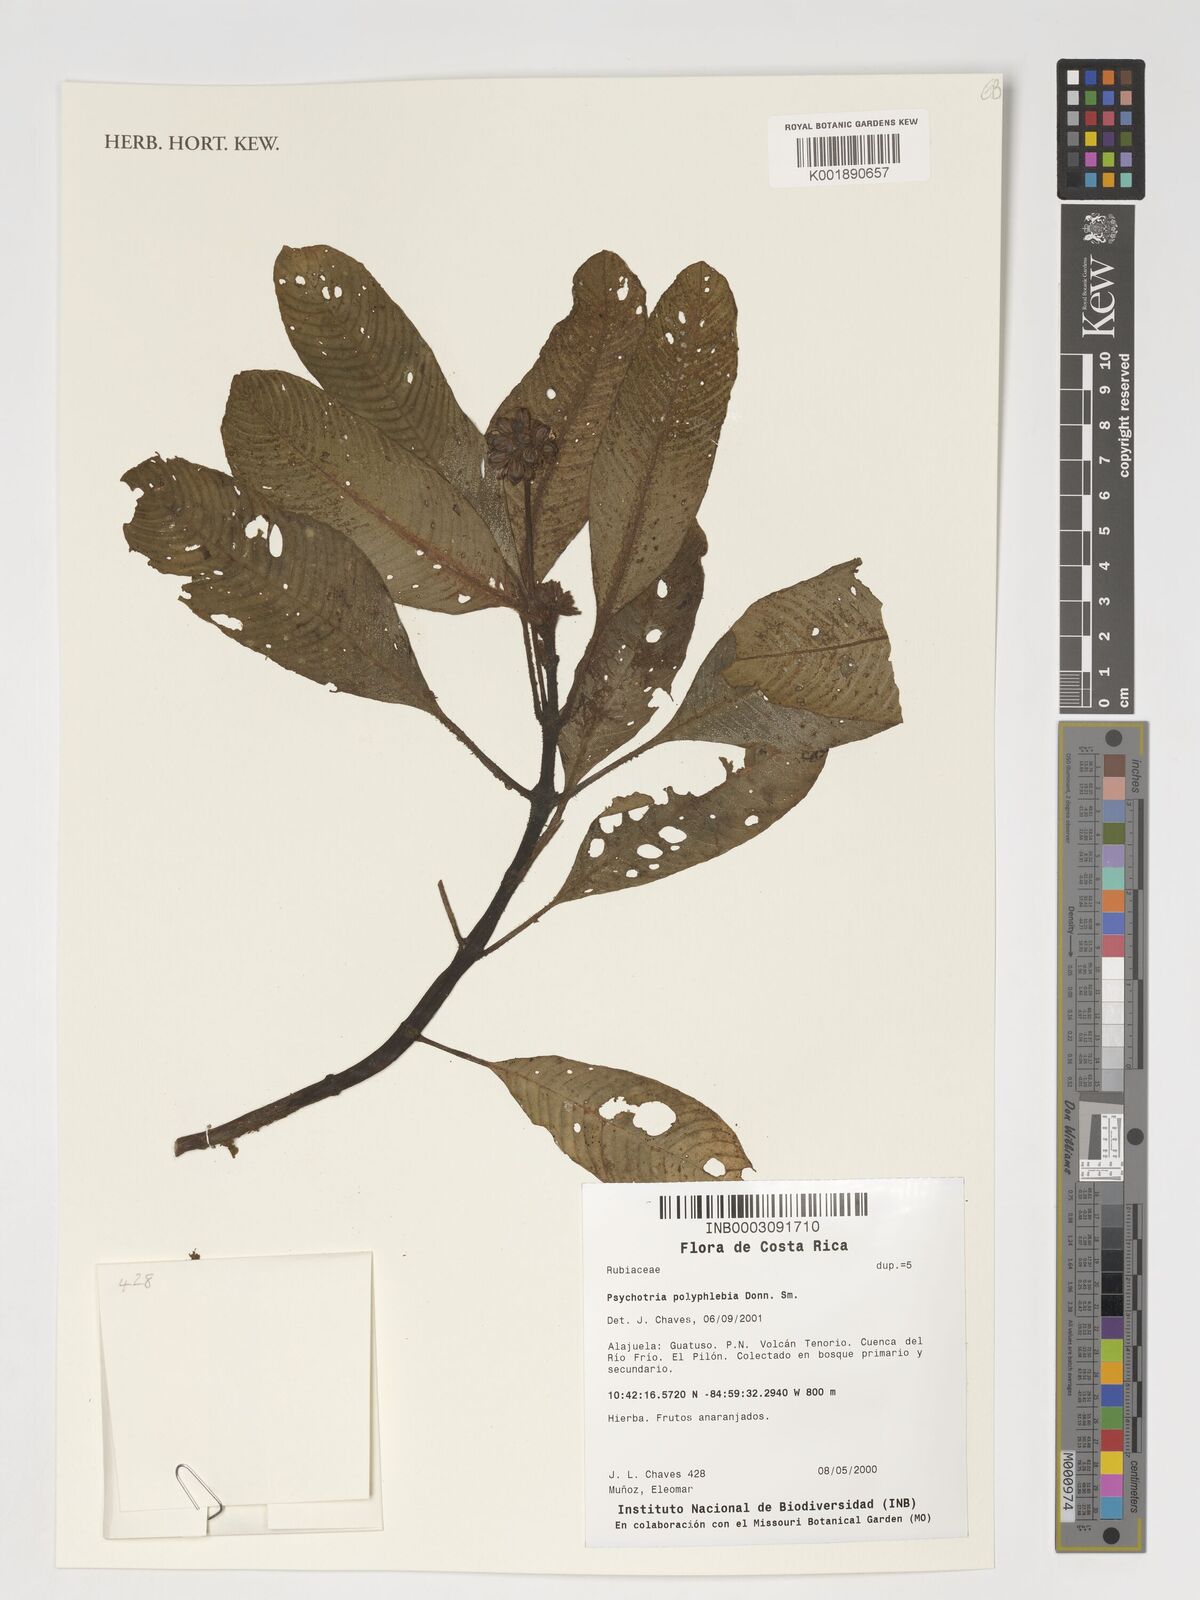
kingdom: Plantae
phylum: Tracheophyta
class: Magnoliopsida
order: Gentianales
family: Rubiaceae
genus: Notopleura
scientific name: Notopleura polyphlebia
